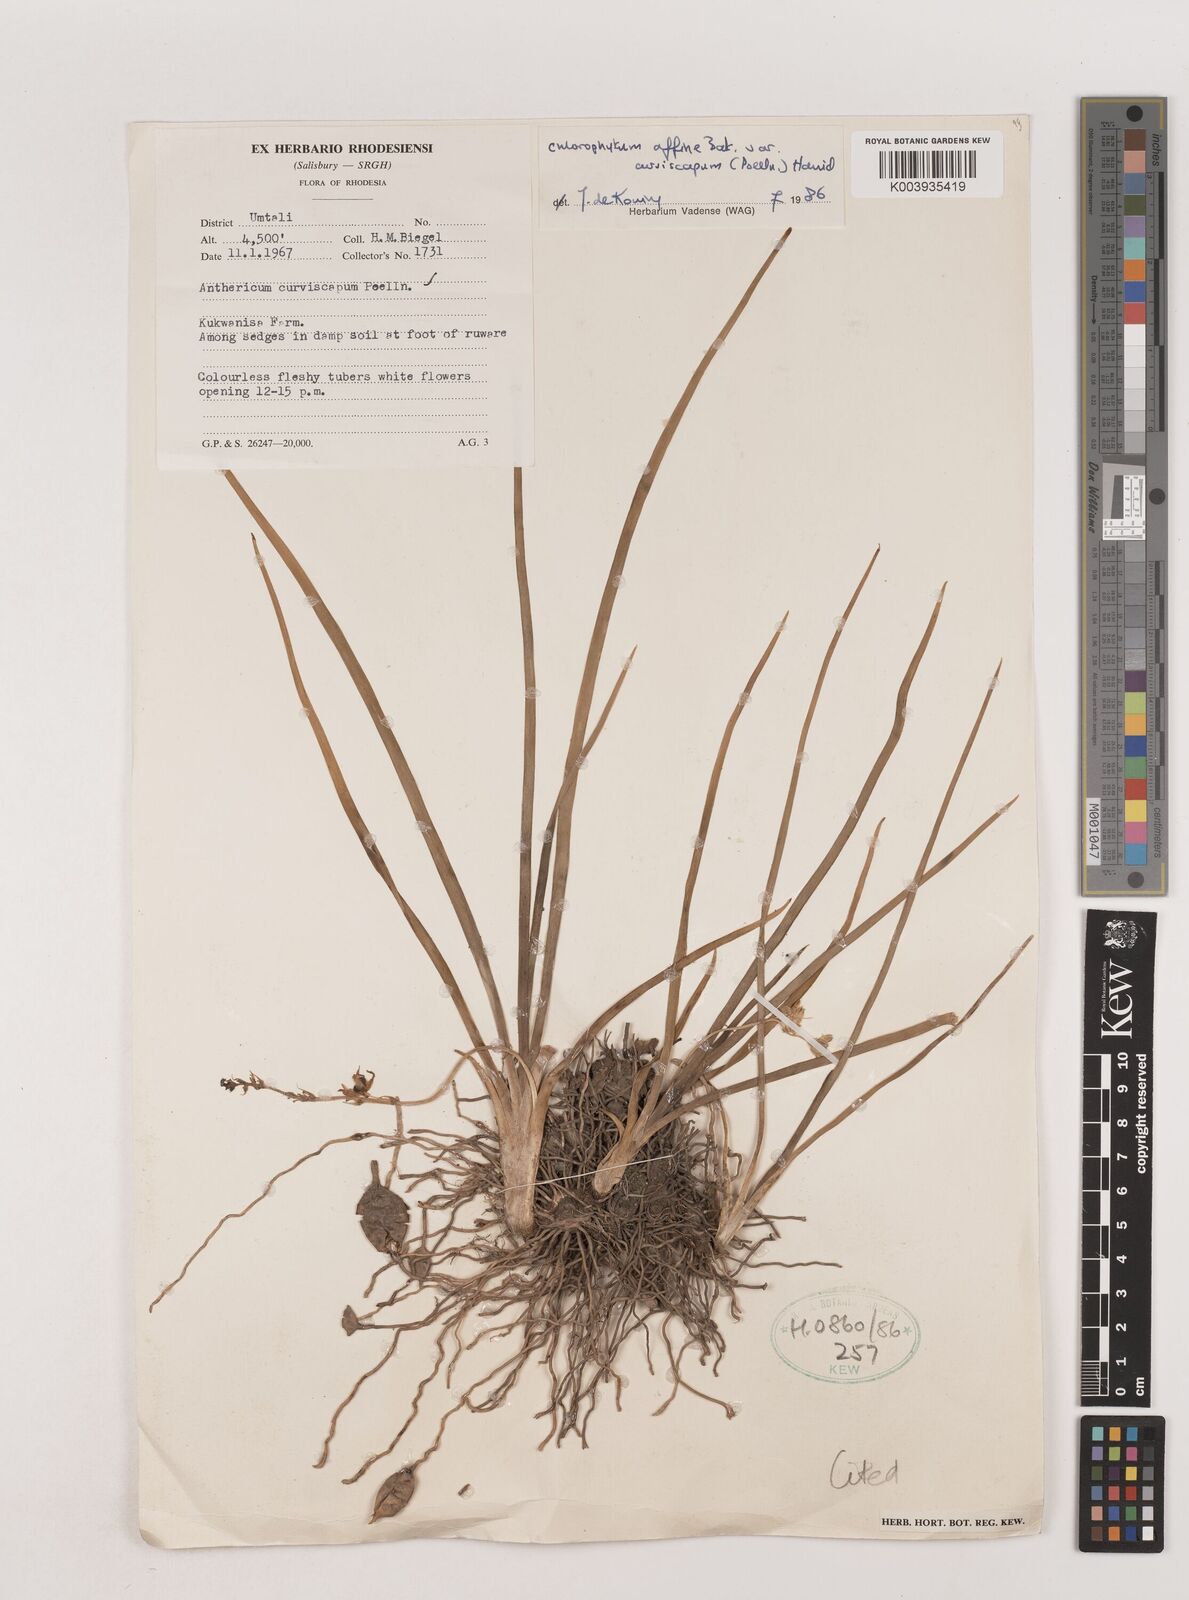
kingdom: Plantae
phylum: Tracheophyta
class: Liliopsida
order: Asparagales
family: Asparagaceae
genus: Chlorophytum
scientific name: Chlorophytum tordense
